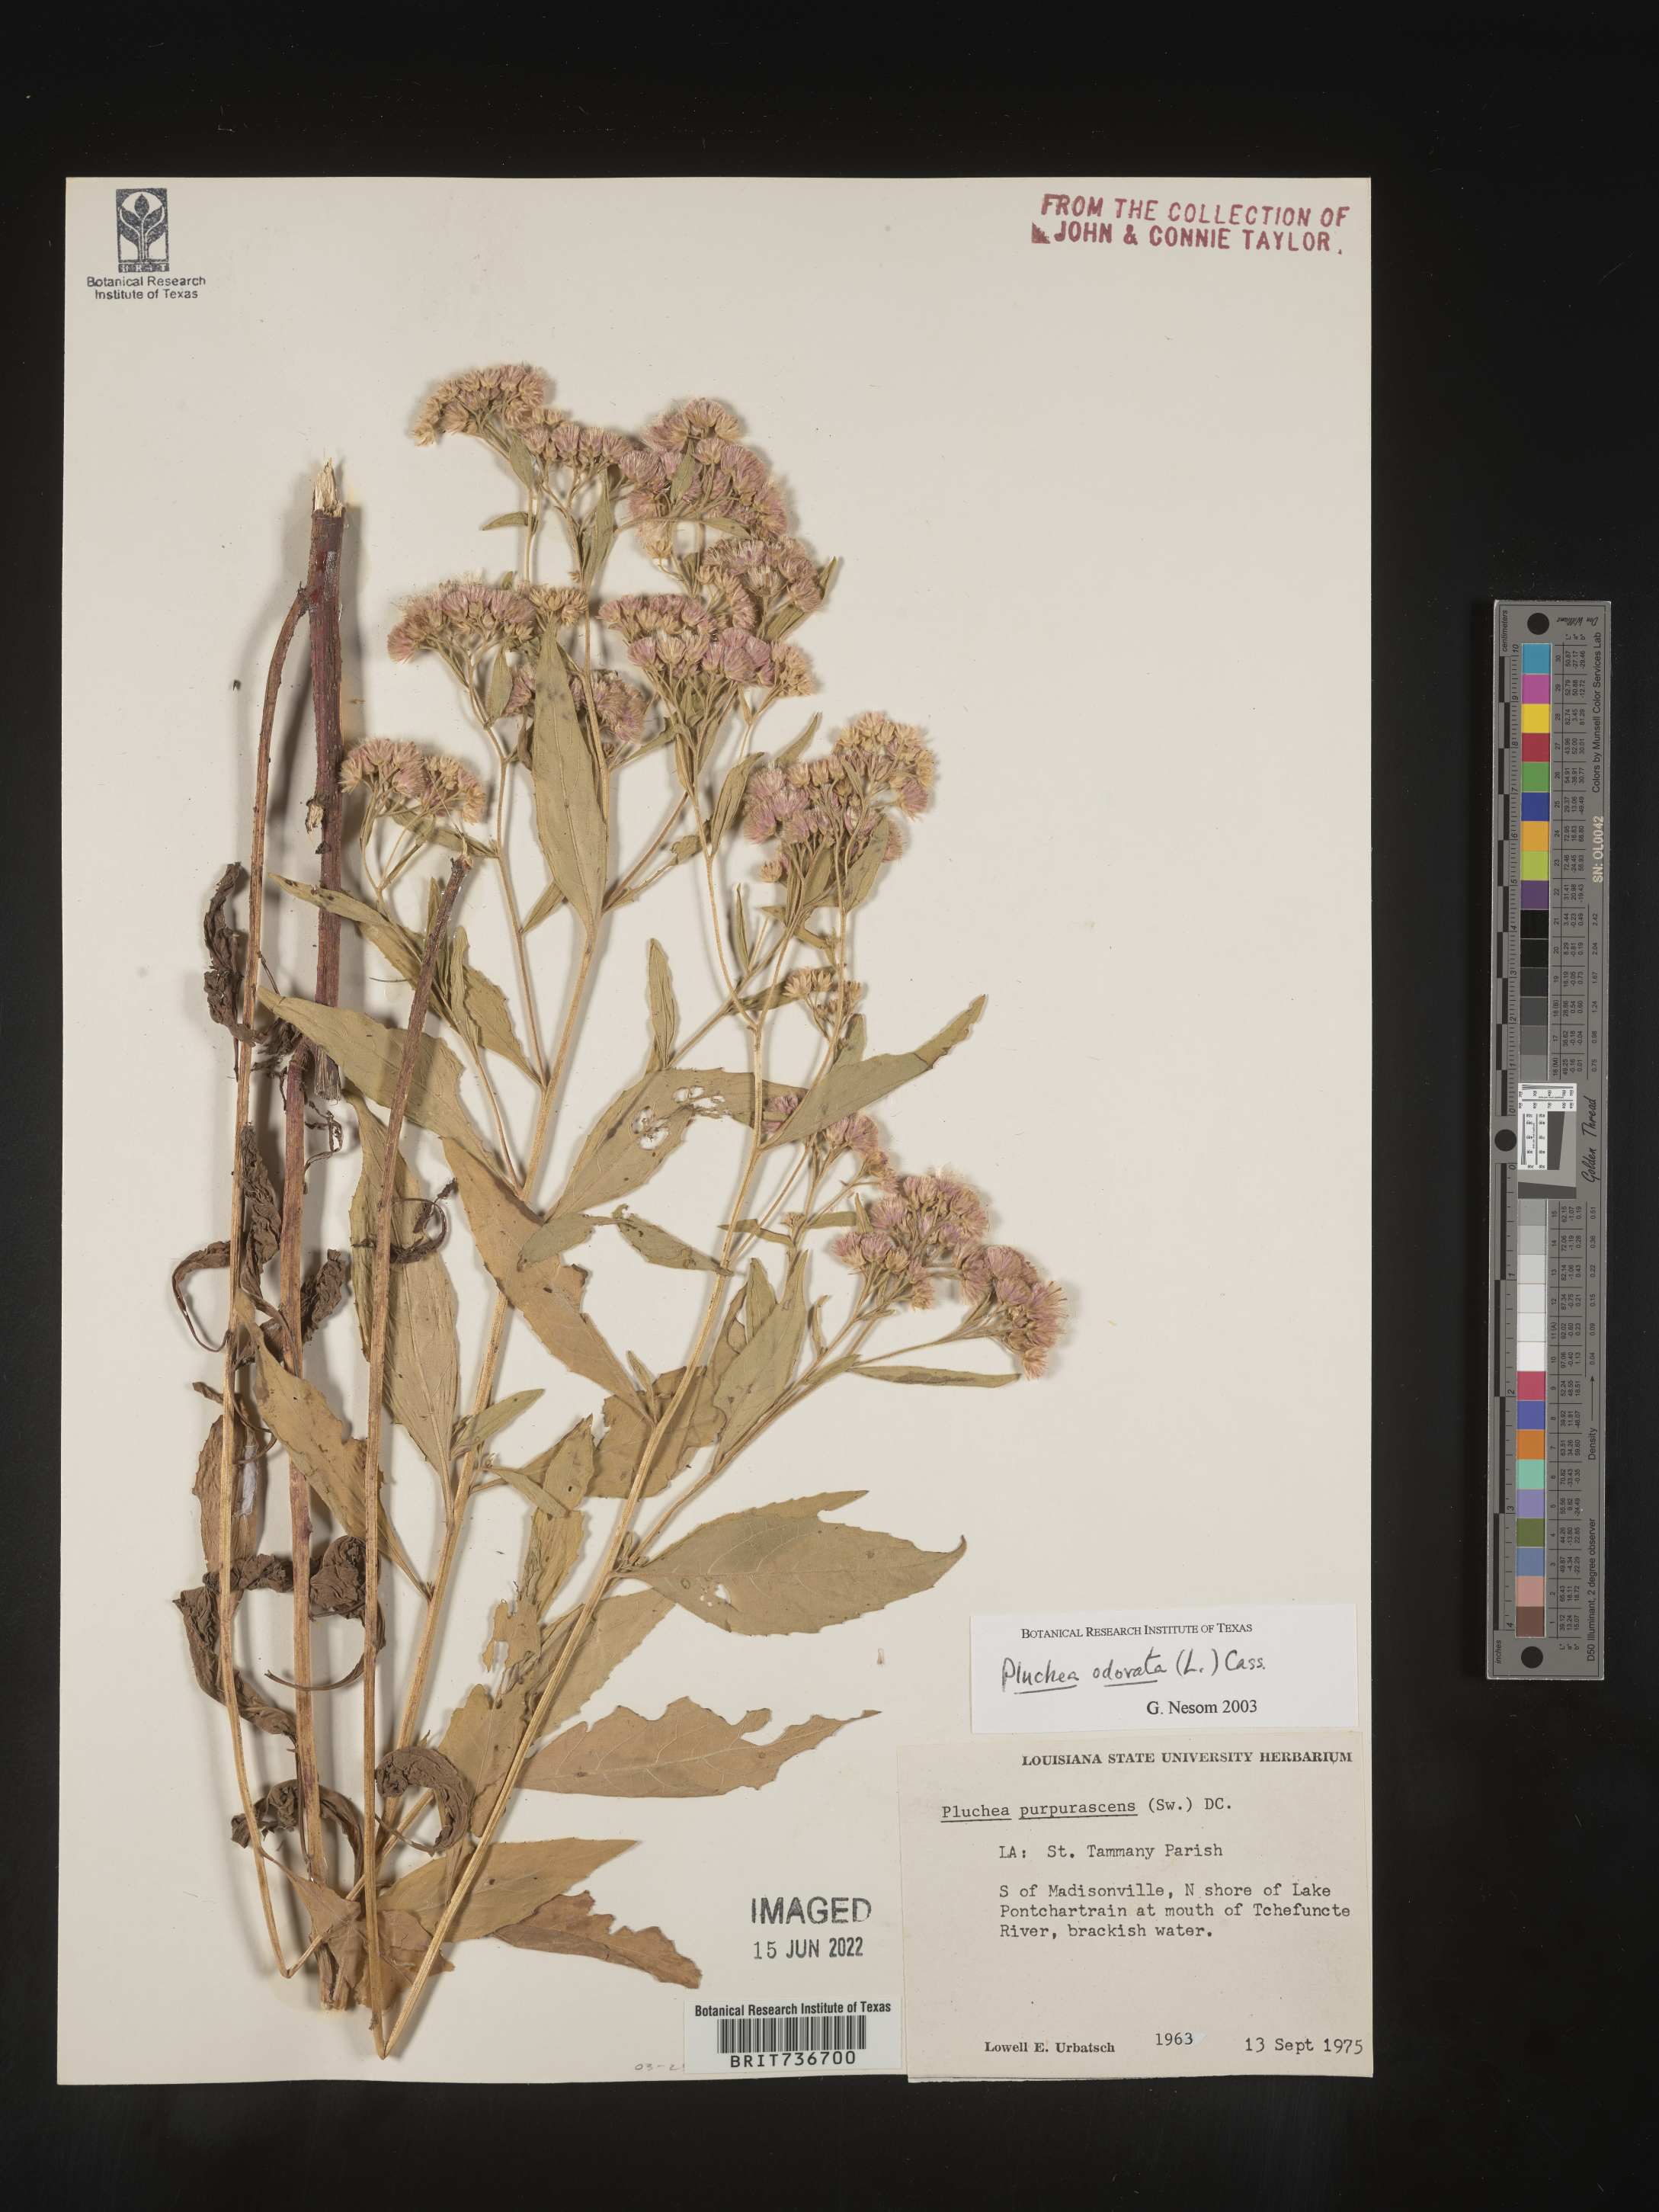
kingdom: Plantae
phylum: Tracheophyta
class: Magnoliopsida
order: Asterales
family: Asteraceae
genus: Pluchea
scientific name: Pluchea odorata
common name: Saltmarsh fleabane
